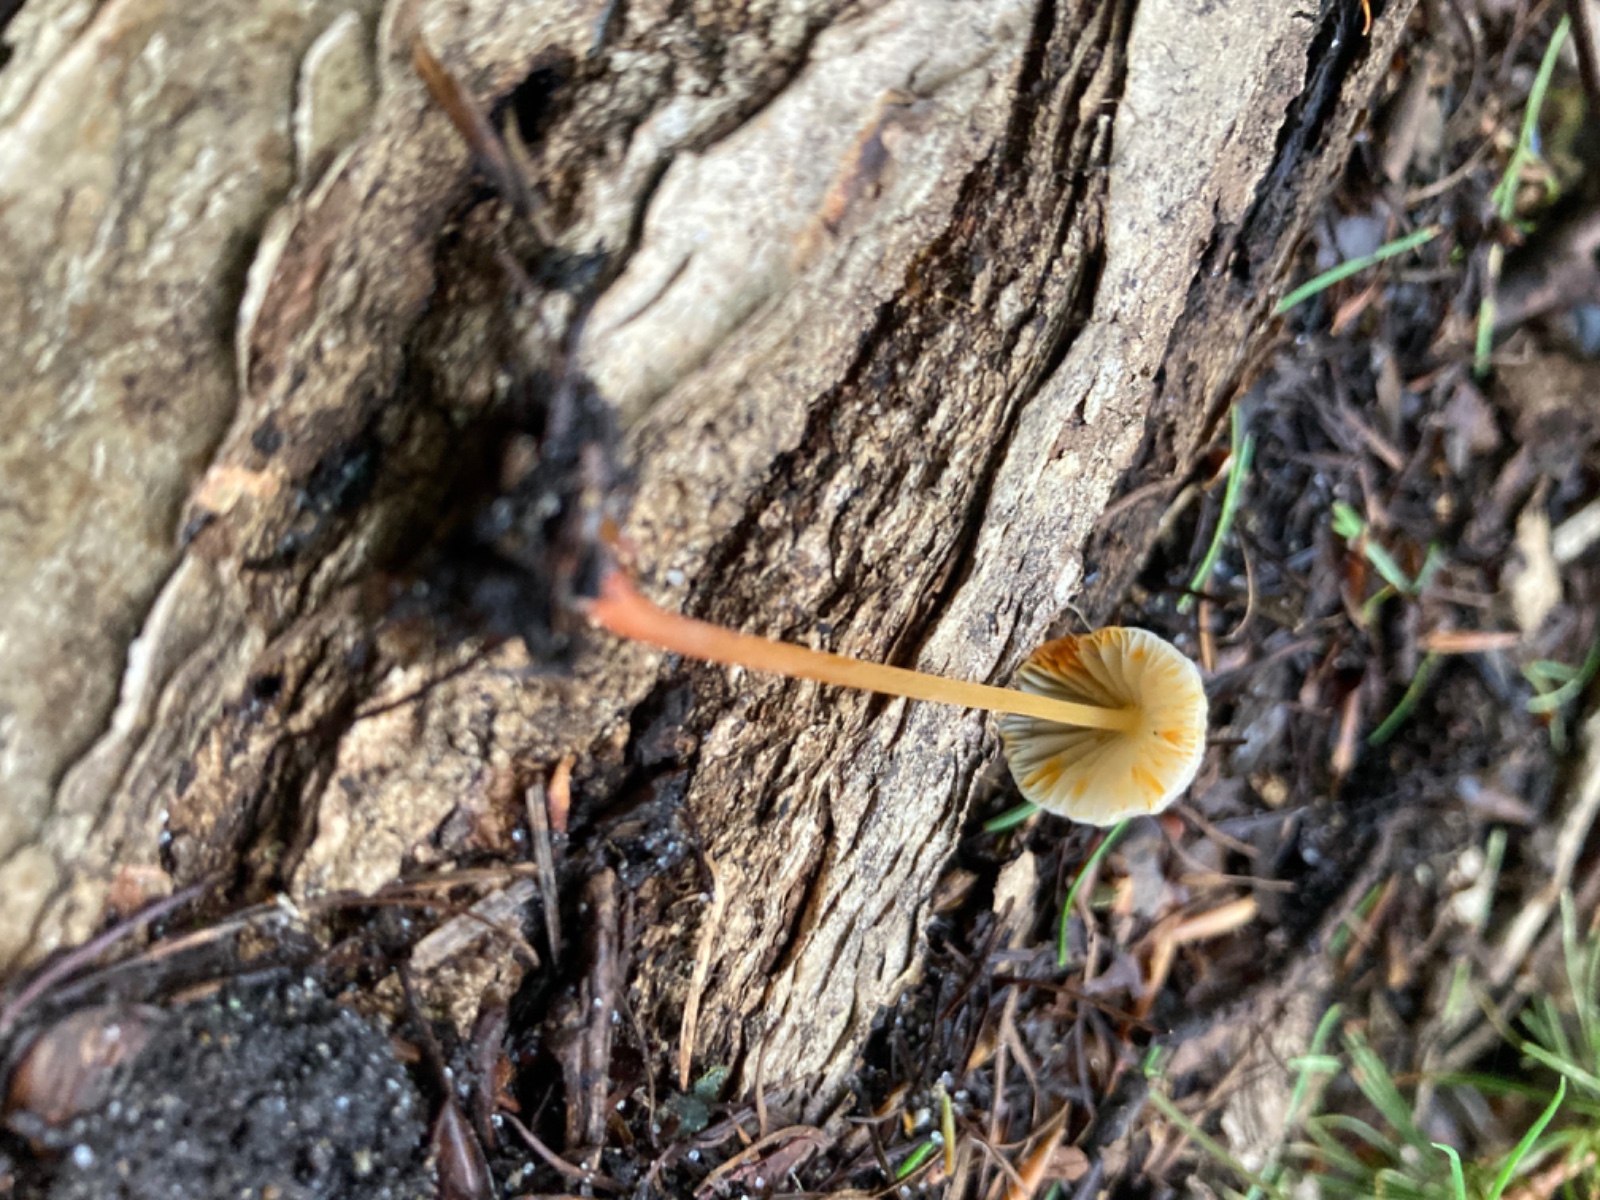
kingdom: Fungi
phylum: Basidiomycota
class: Agaricomycetes
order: Agaricales
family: Mycenaceae
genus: Mycena
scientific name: Mycena crocata
